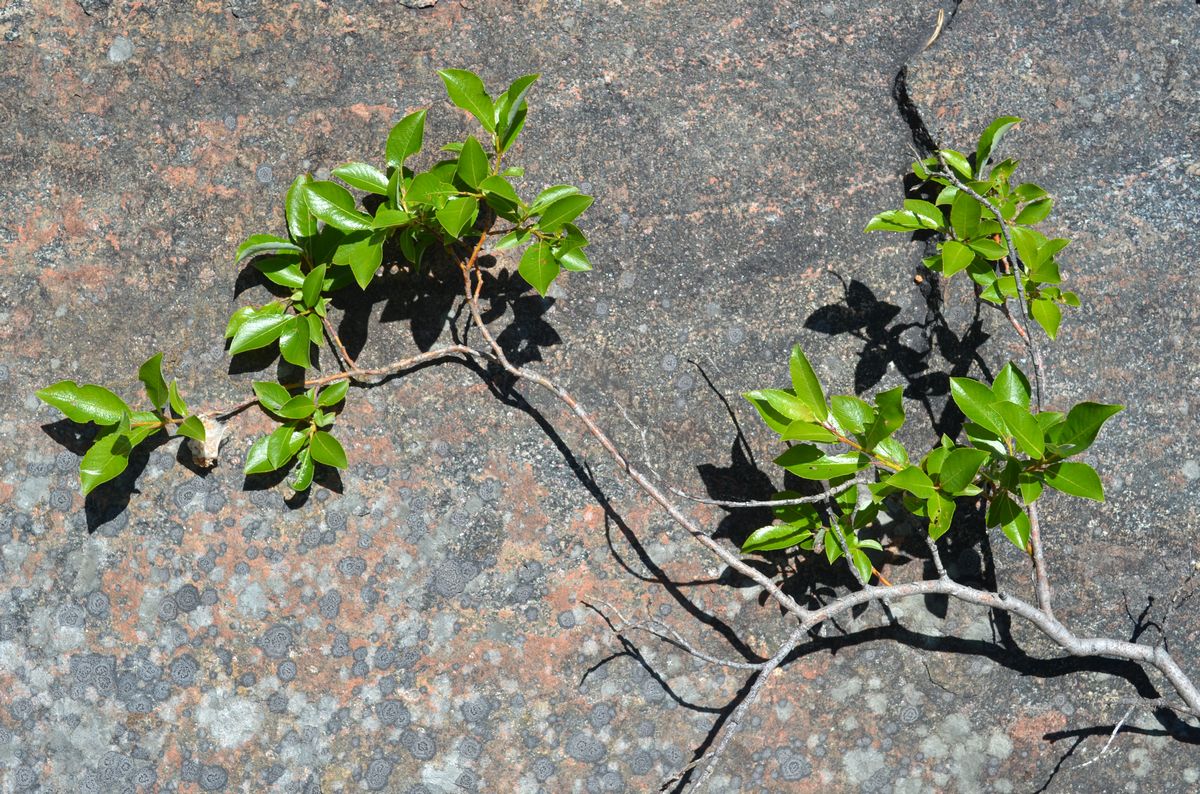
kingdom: Plantae
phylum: Tracheophyta
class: Magnoliopsida
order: Malpighiales
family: Salicaceae
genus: Salix
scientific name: Salix phylicifolia
